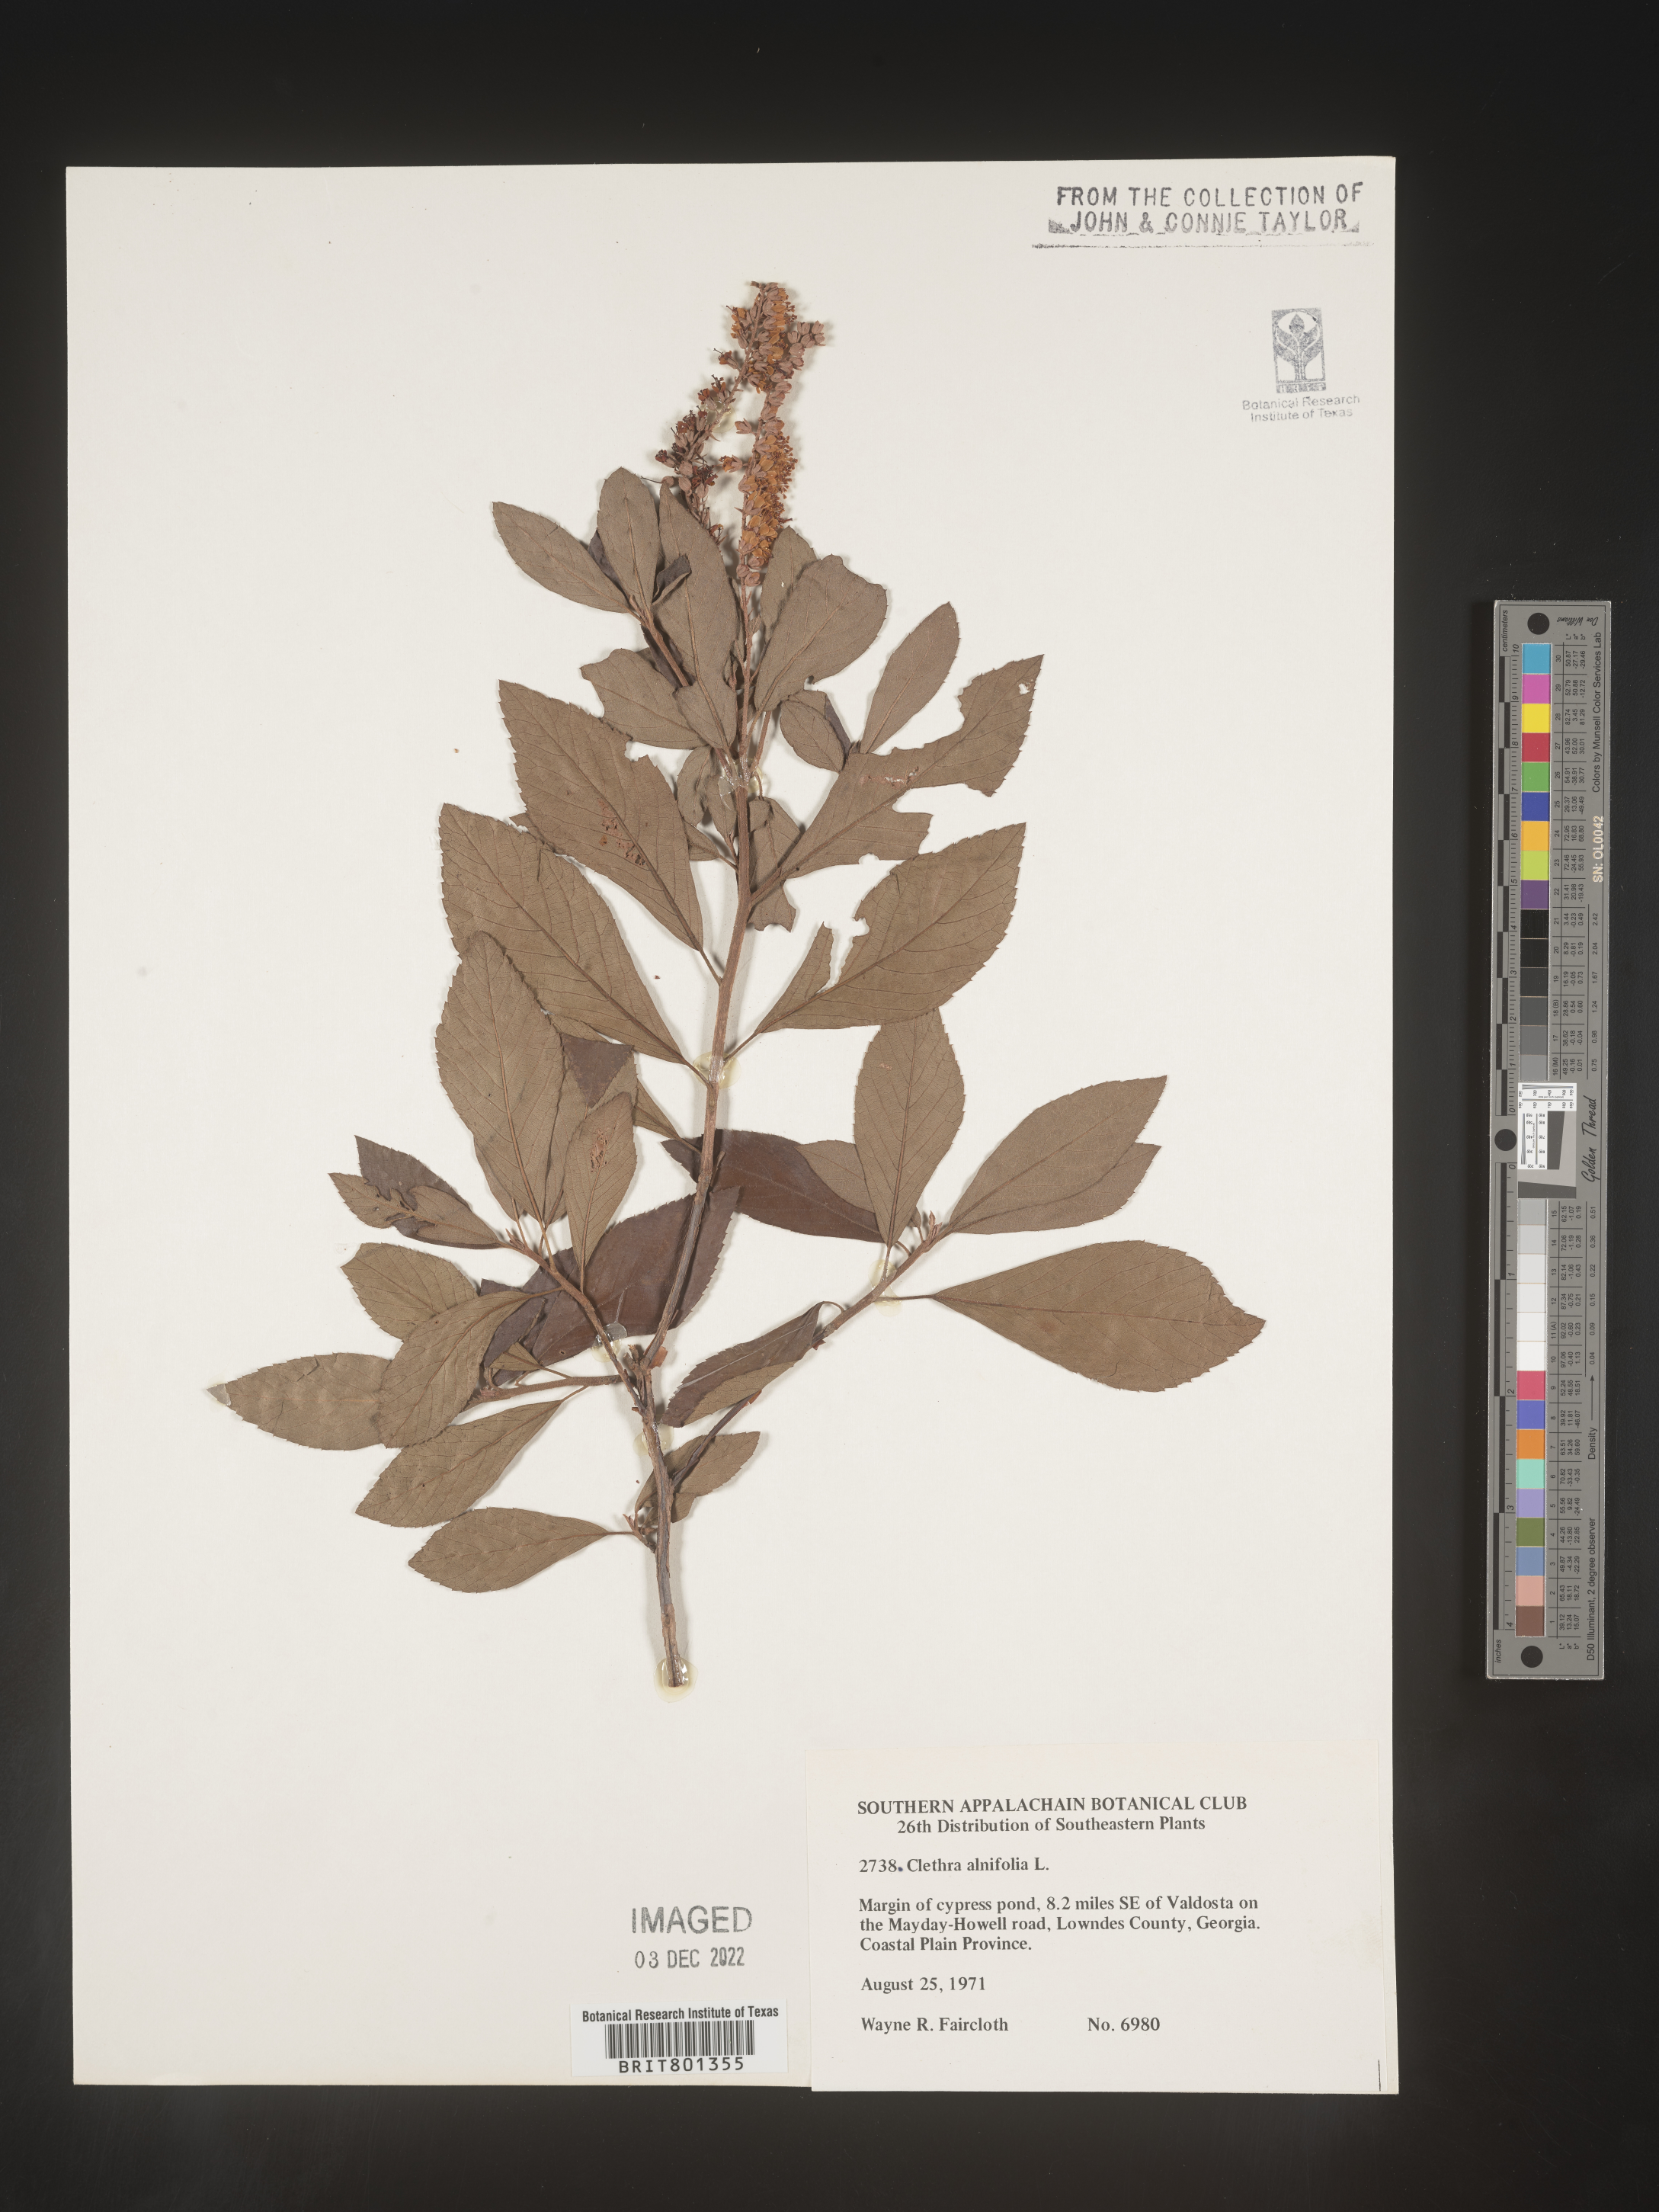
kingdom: Plantae
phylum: Tracheophyta
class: Magnoliopsida
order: Ericales
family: Clethraceae
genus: Clethra
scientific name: Clethra alnifolia
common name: Sweet pepperbush
